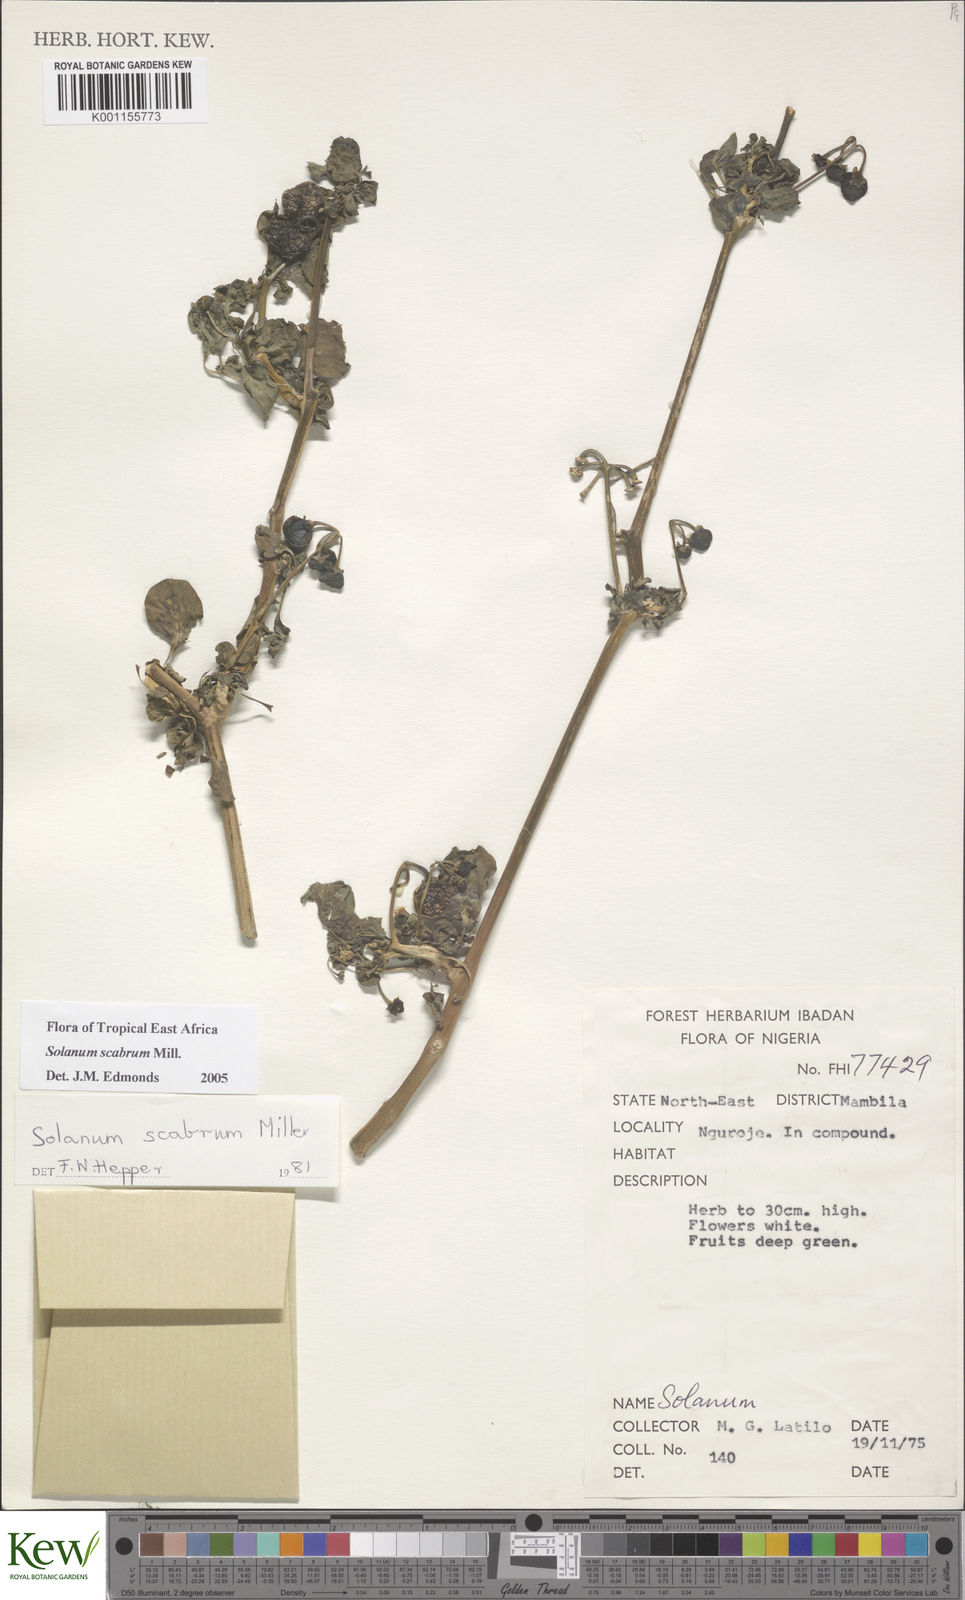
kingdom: Plantae
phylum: Tracheophyta
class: Magnoliopsida
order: Solanales
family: Solanaceae
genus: Solanum
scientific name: Solanum scabrum
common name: Garden-huckleberry
